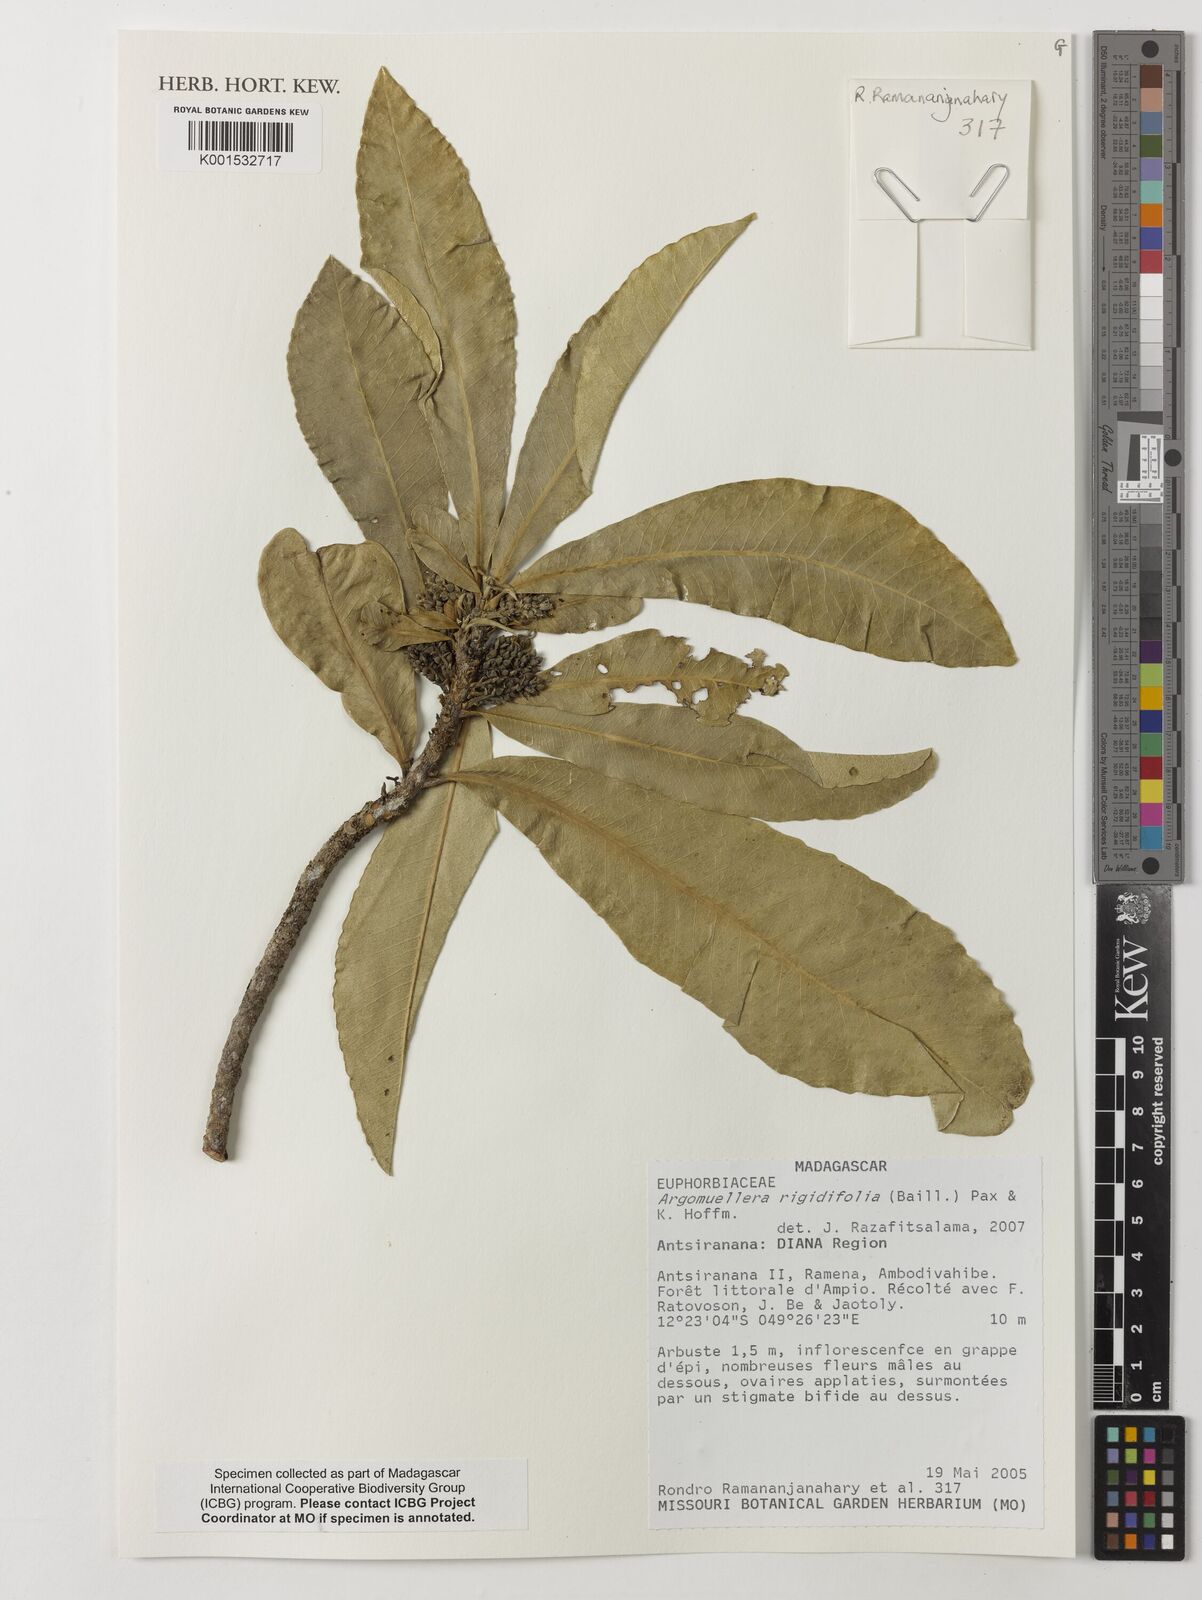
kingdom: Plantae
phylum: Tracheophyta
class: Magnoliopsida
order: Malpighiales
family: Euphorbiaceae
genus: Droceloncia
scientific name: Droceloncia rigidifolia
